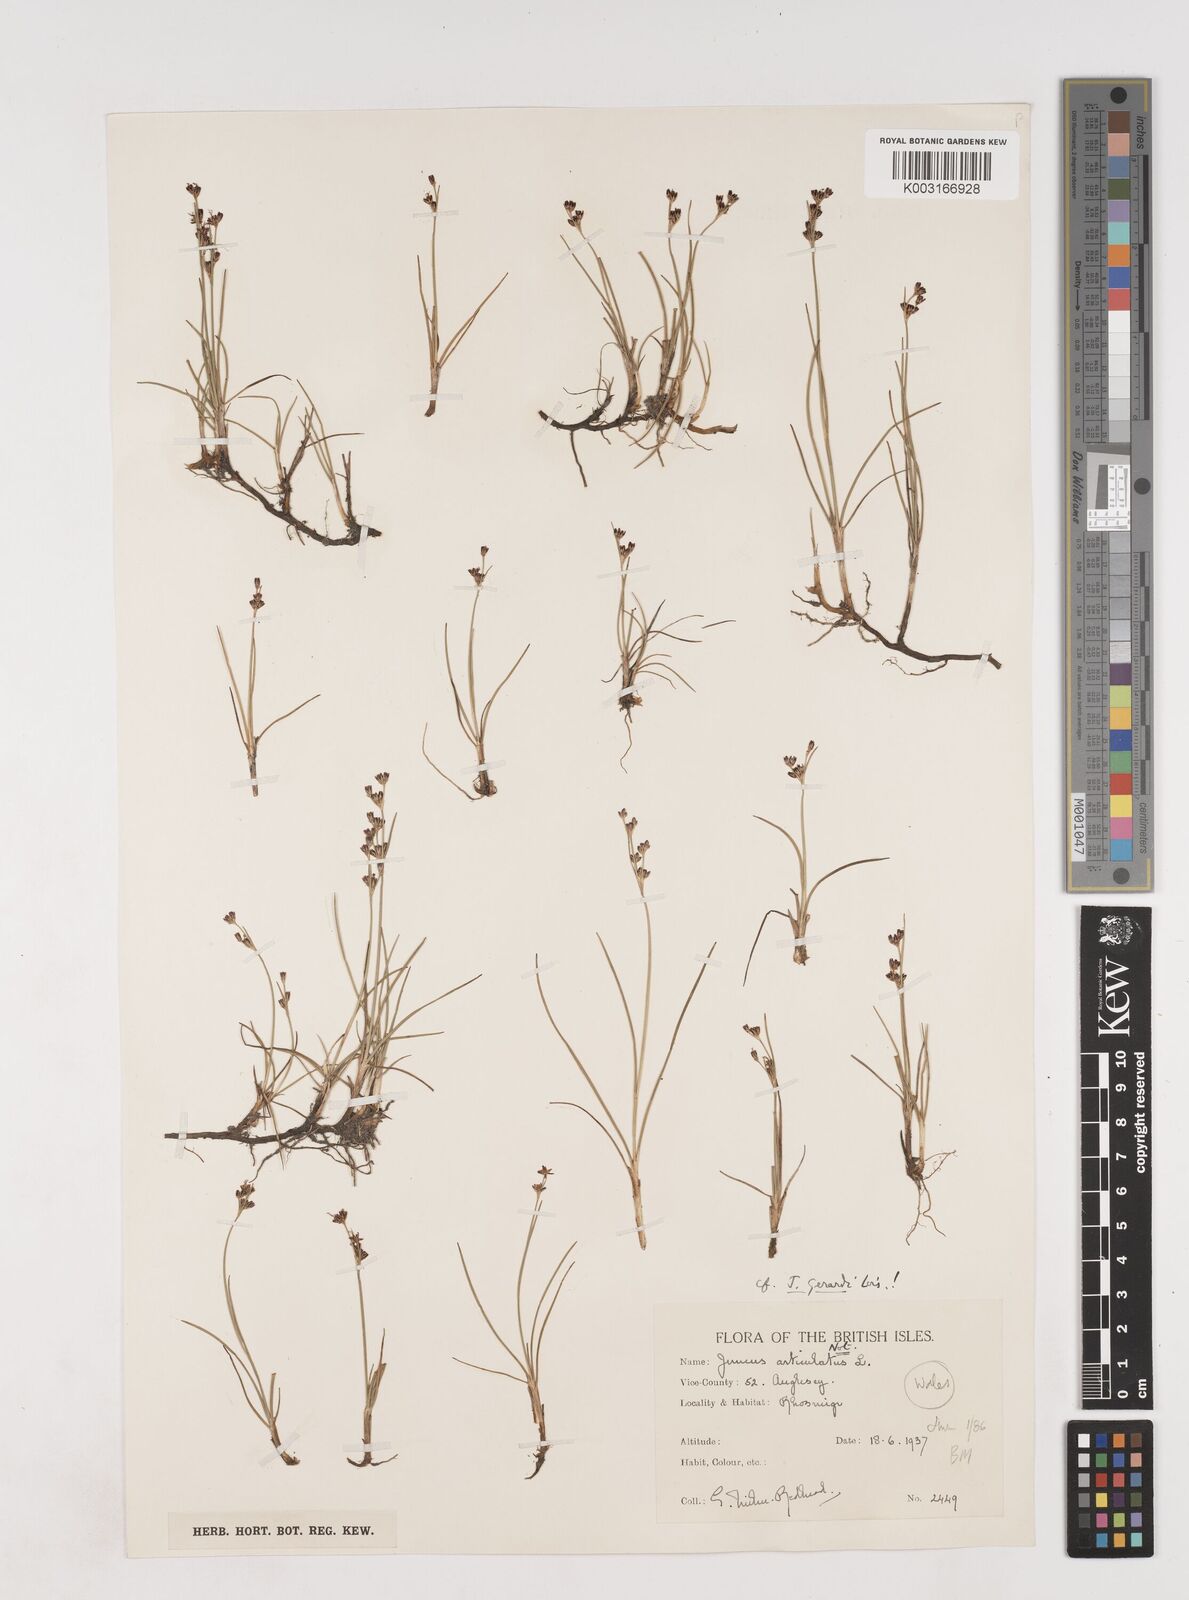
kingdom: Plantae
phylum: Tracheophyta
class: Liliopsida
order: Poales
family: Juncaceae
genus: Juncus
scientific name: Juncus gerardi
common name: Saltmarsh rush
